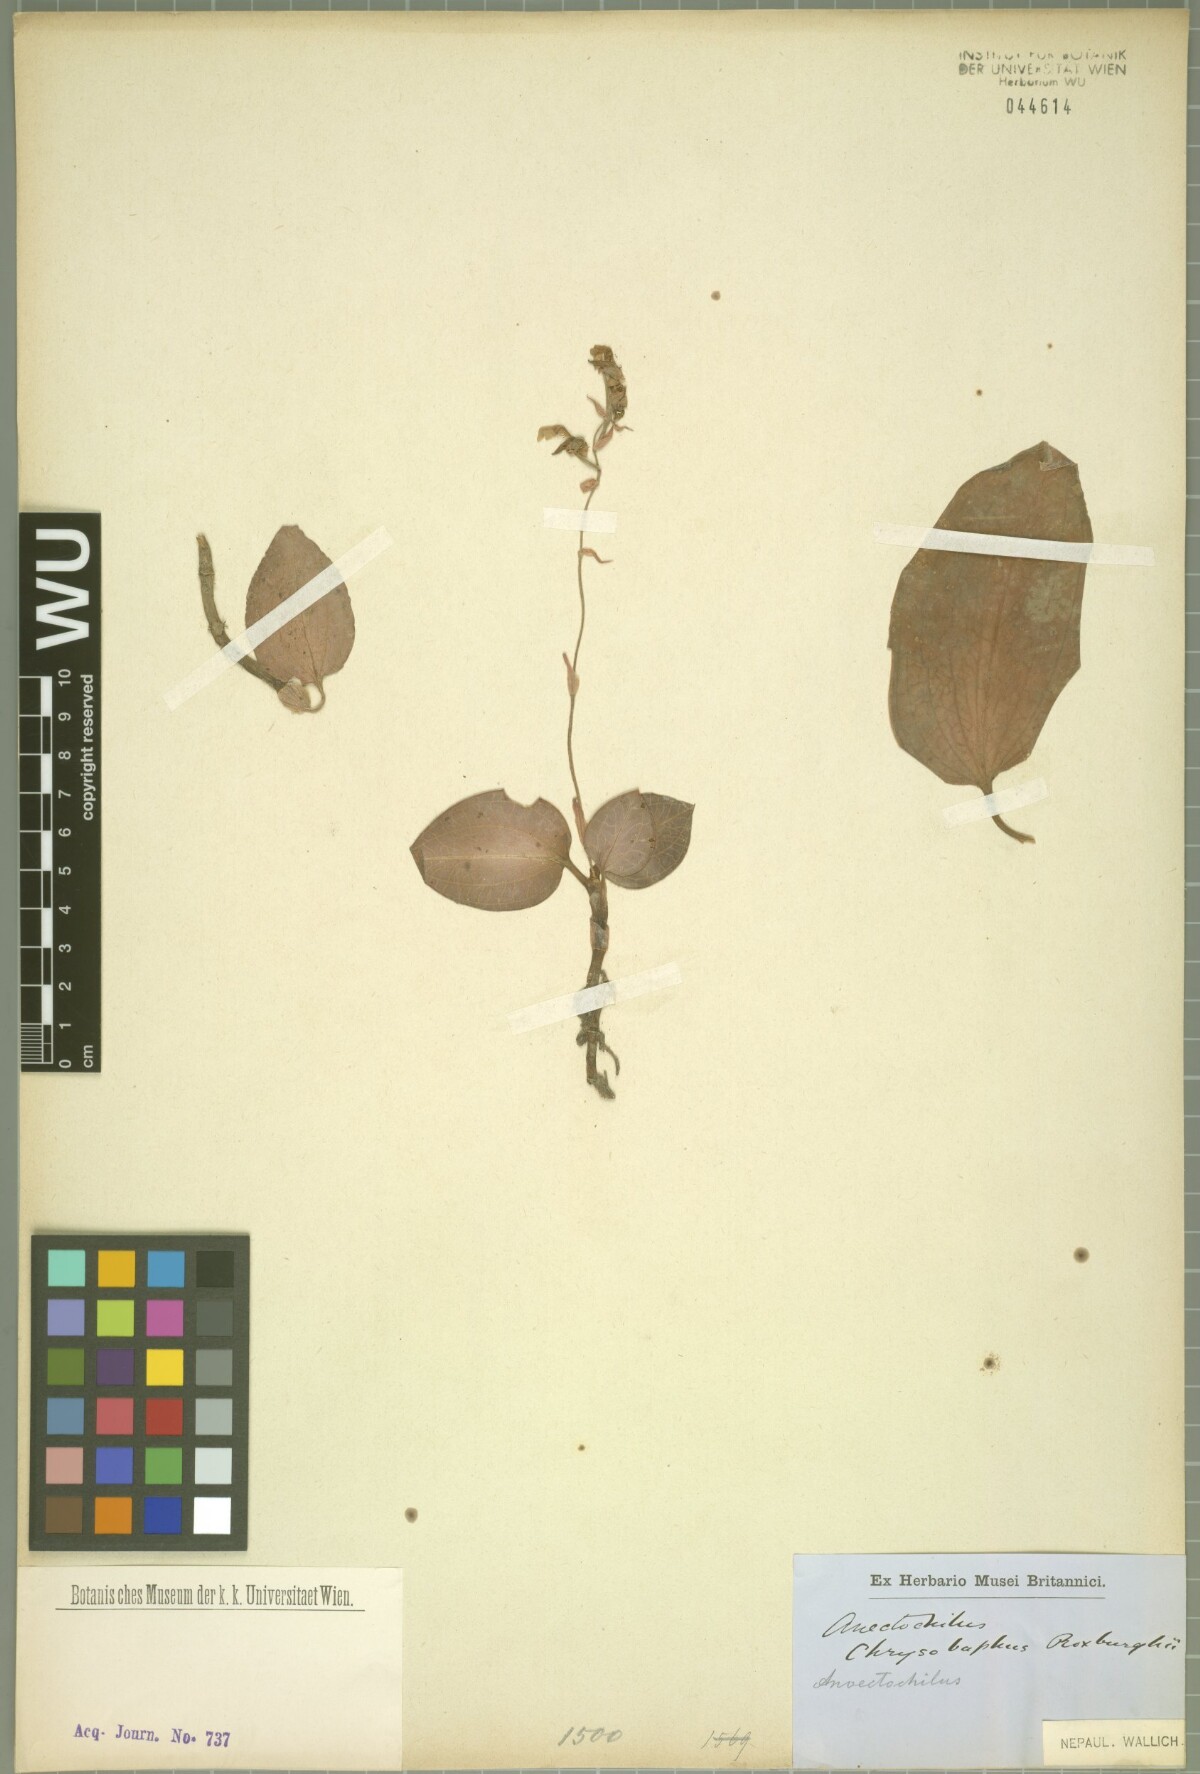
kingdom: Plantae
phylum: Tracheophyta
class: Liliopsida
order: Asparagales
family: Orchidaceae
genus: Anoectochilus
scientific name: Anoectochilus roxburghii
